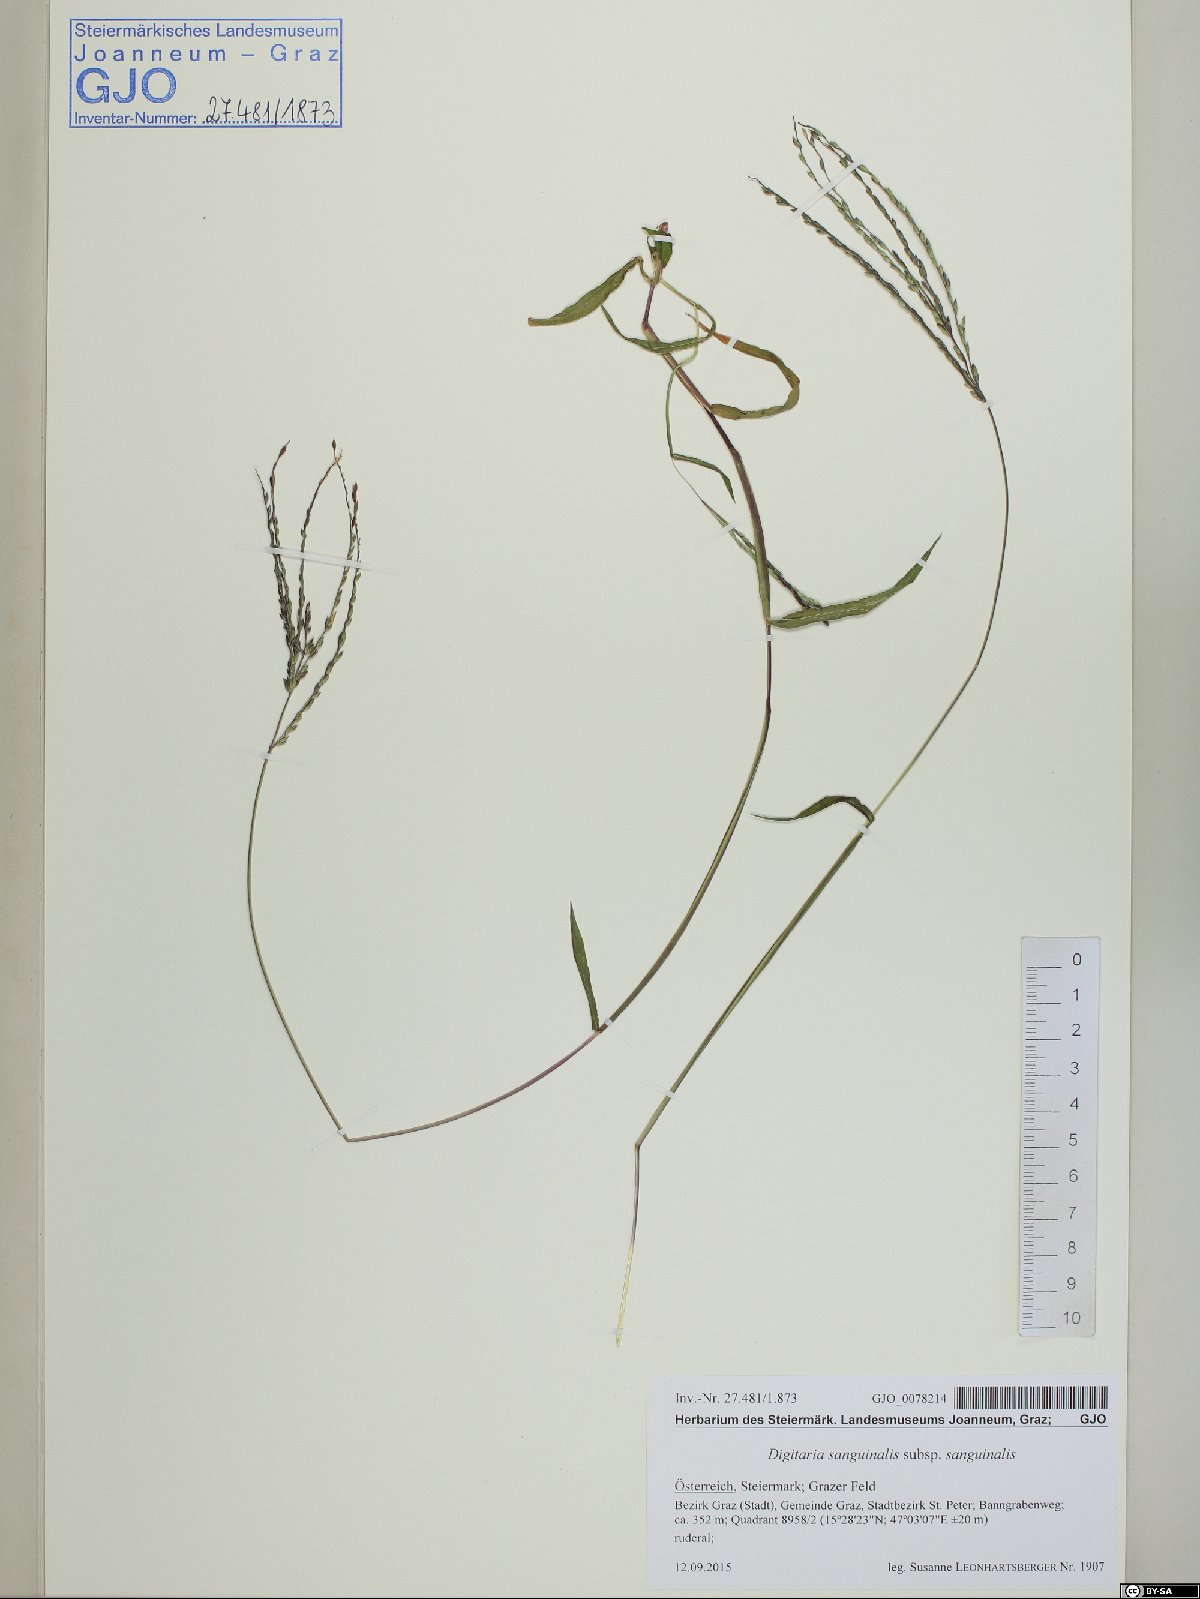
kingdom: Plantae
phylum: Tracheophyta
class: Liliopsida
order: Poales
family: Poaceae
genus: Digitaria
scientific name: Digitaria sanguinalis
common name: Hairy crabgrass
